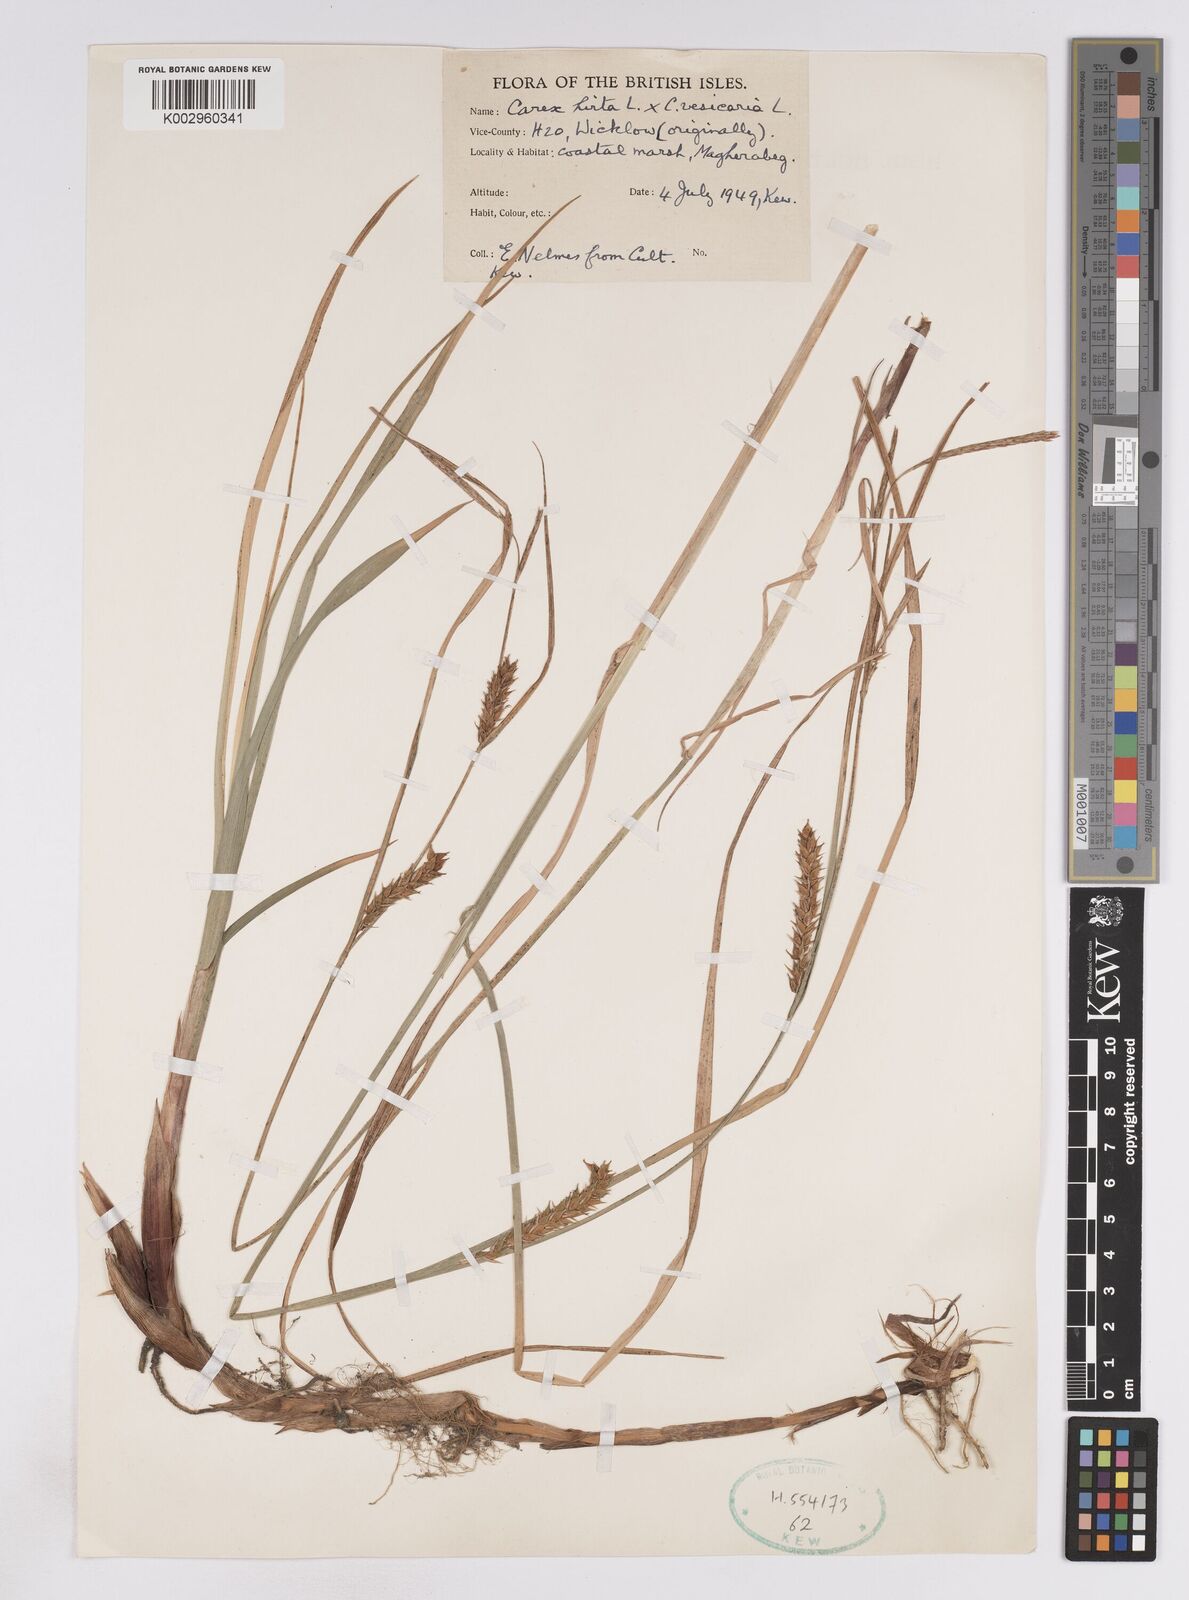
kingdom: Plantae
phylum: Tracheophyta
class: Liliopsida
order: Poales
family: Cyperaceae
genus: Carex
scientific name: Carex vesicaria
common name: Bladder-sedge
